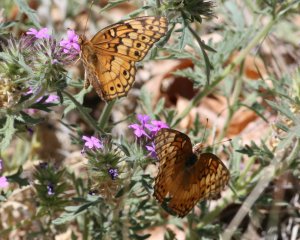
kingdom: Animalia
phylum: Arthropoda
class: Insecta
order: Lepidoptera
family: Nymphalidae
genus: Euptoieta
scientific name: Euptoieta claudia
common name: Variegated Fritillary
